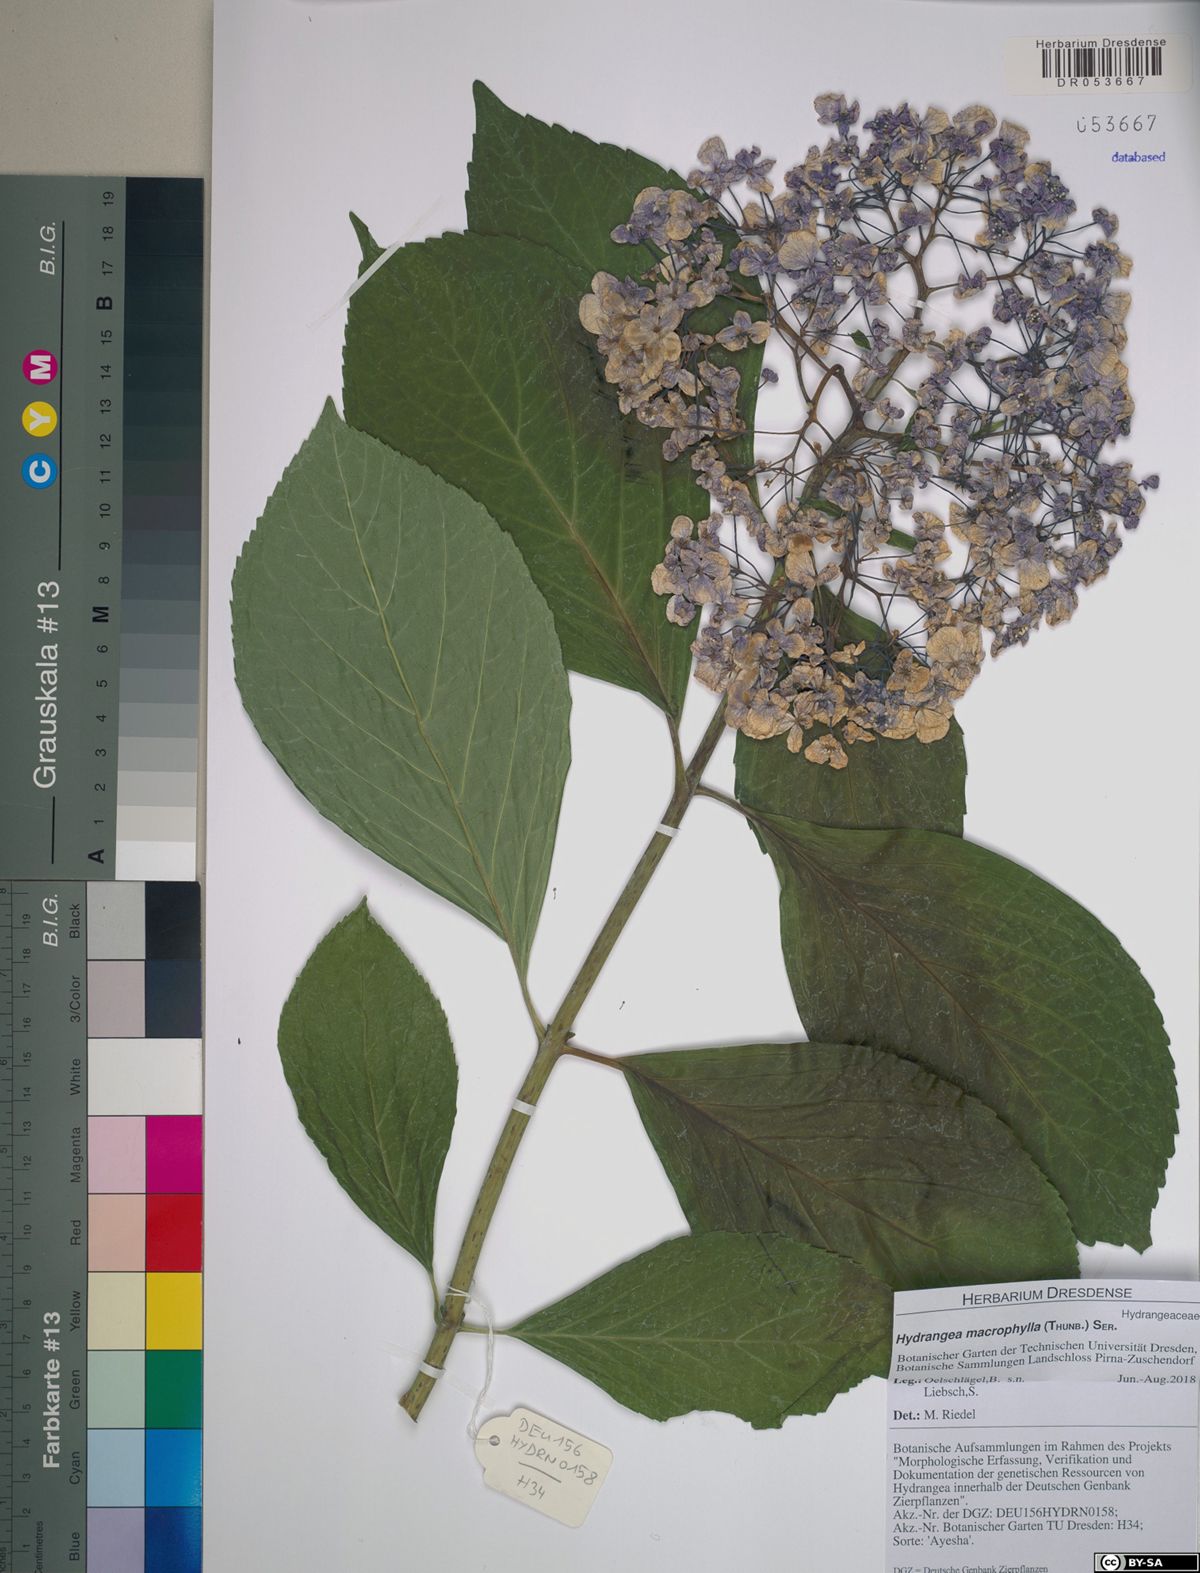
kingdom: Plantae
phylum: Tracheophyta
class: Magnoliopsida
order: Cornales
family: Hydrangeaceae
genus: Hydrangea
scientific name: Hydrangea macrophylla
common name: Hydrangea
